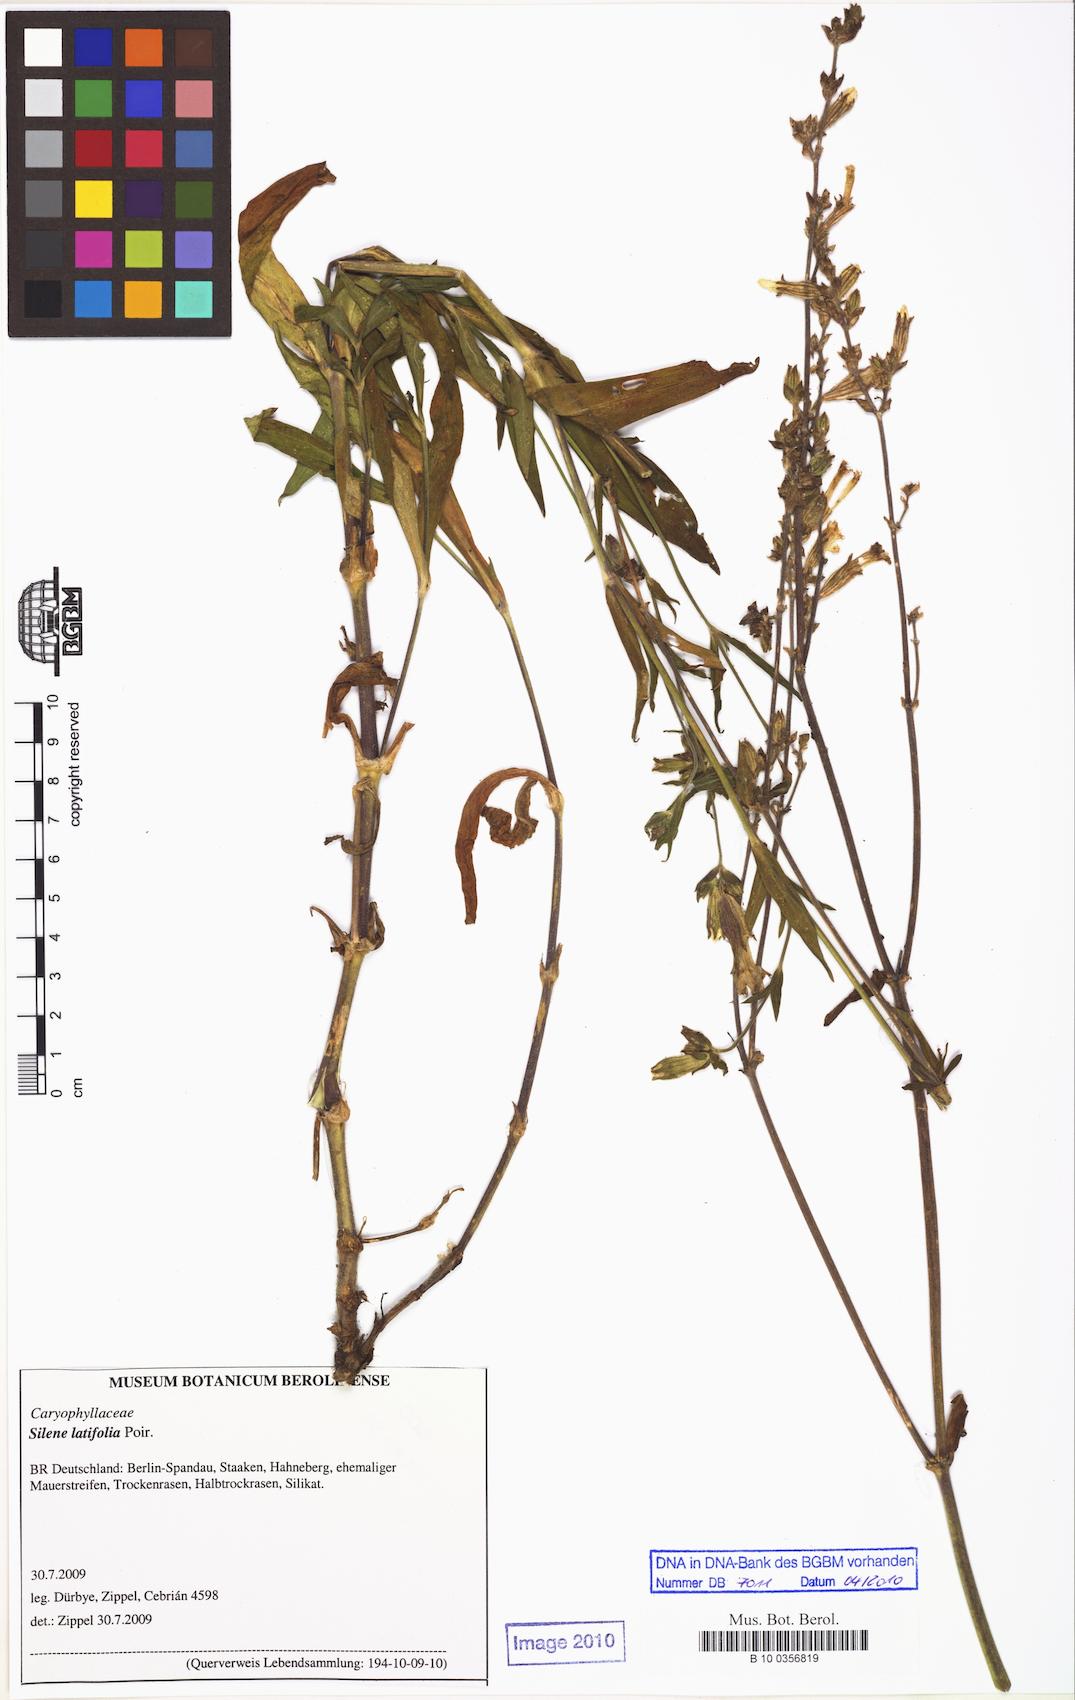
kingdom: Plantae
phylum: Tracheophyta
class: Magnoliopsida
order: Caryophyllales
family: Caryophyllaceae
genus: Silene
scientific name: Silene latifolia
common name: White campion
